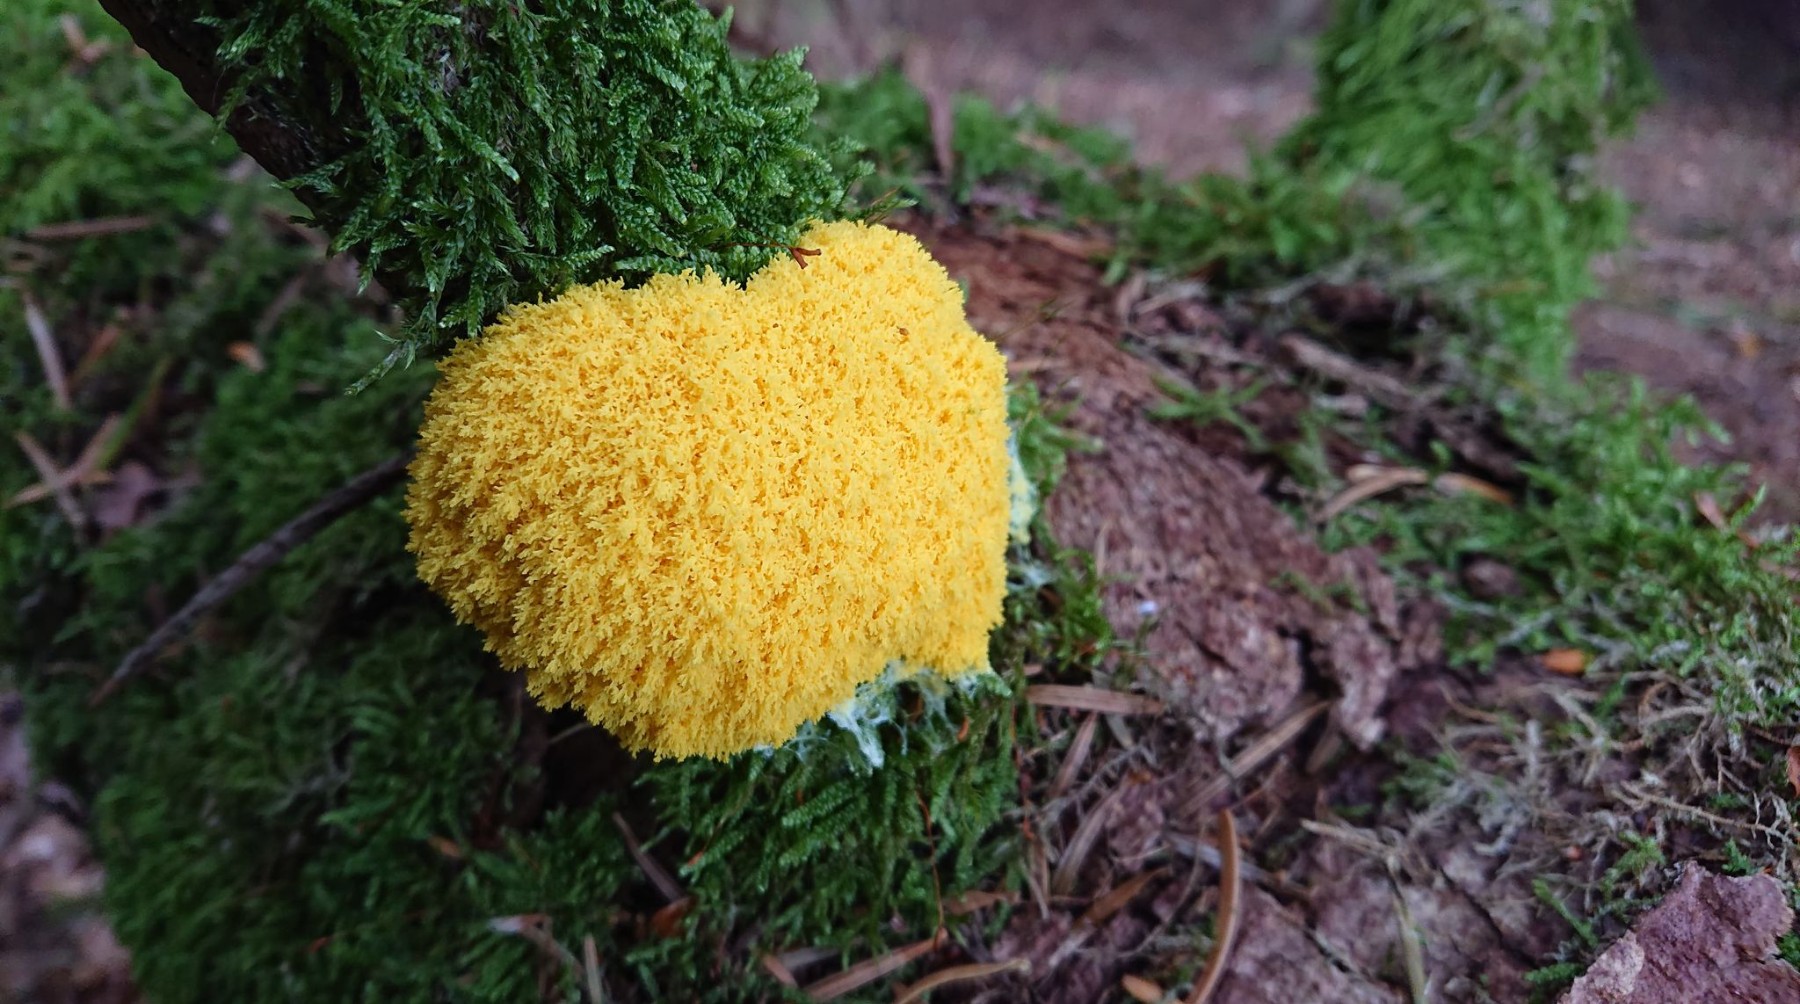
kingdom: Protozoa
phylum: Mycetozoa
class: Myxomycetes
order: Physarales
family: Physaraceae
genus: Fuligo
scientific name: Fuligo septica
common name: gul troldsmør
